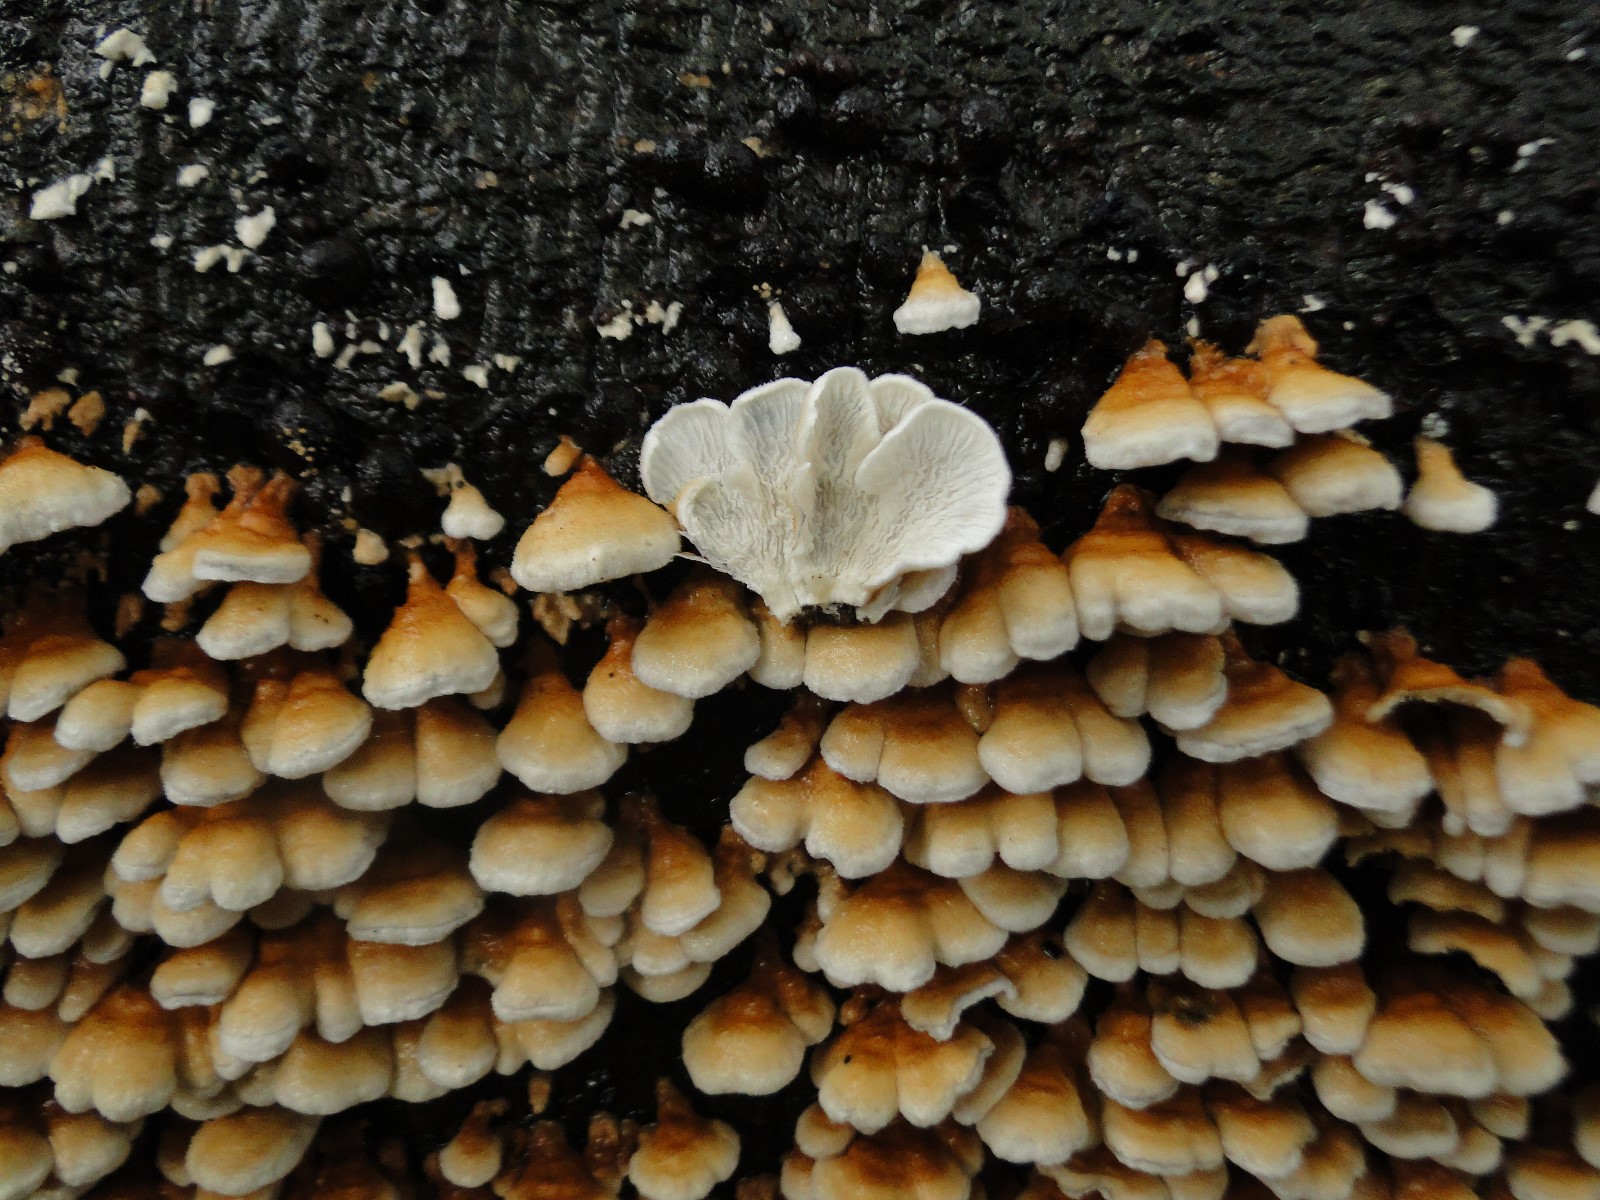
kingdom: Fungi
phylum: Basidiomycota
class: Agaricomycetes
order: Amylocorticiales
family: Amylocorticiaceae
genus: Plicaturopsis
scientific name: Plicaturopsis crispa
